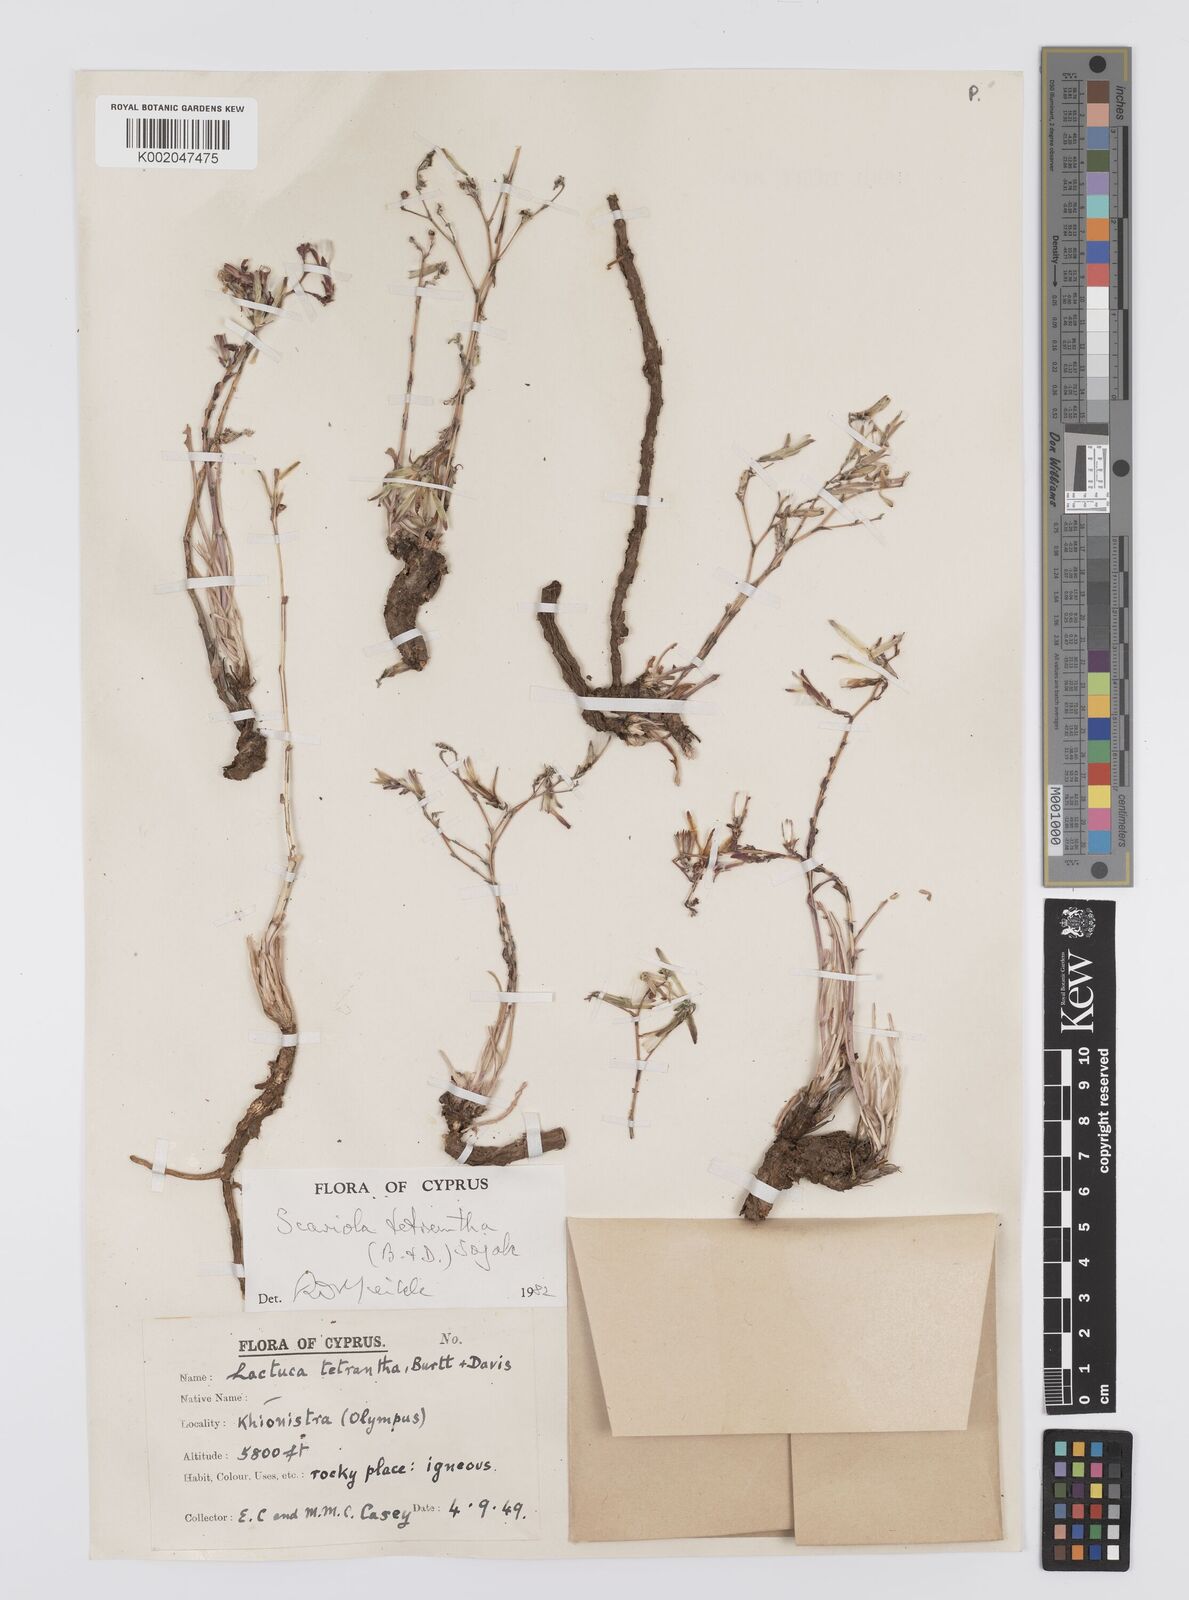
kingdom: Plantae
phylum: Tracheophyta
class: Magnoliopsida
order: Asterales
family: Asteraceae
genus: Lactuca
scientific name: Lactuca tetrantha
